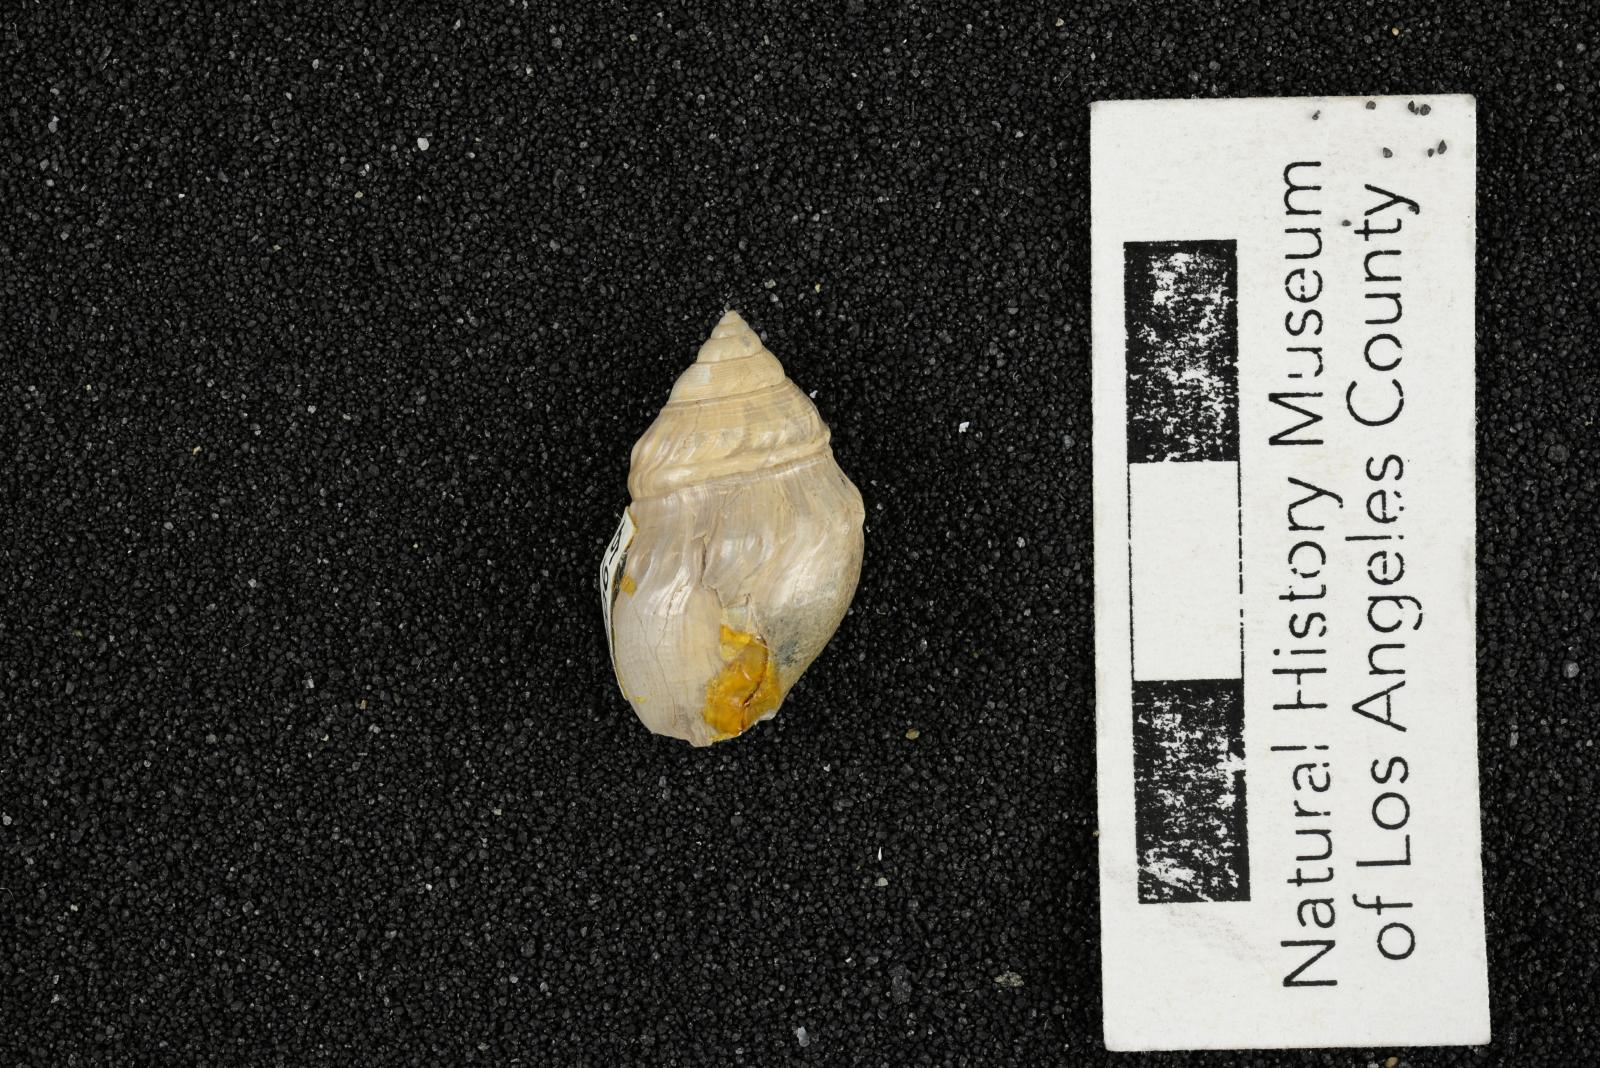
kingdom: Animalia
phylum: Mollusca
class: Gastropoda
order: Littorinimorpha
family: Aporrhaidae
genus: Pyktes
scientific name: Pyktes aspris
